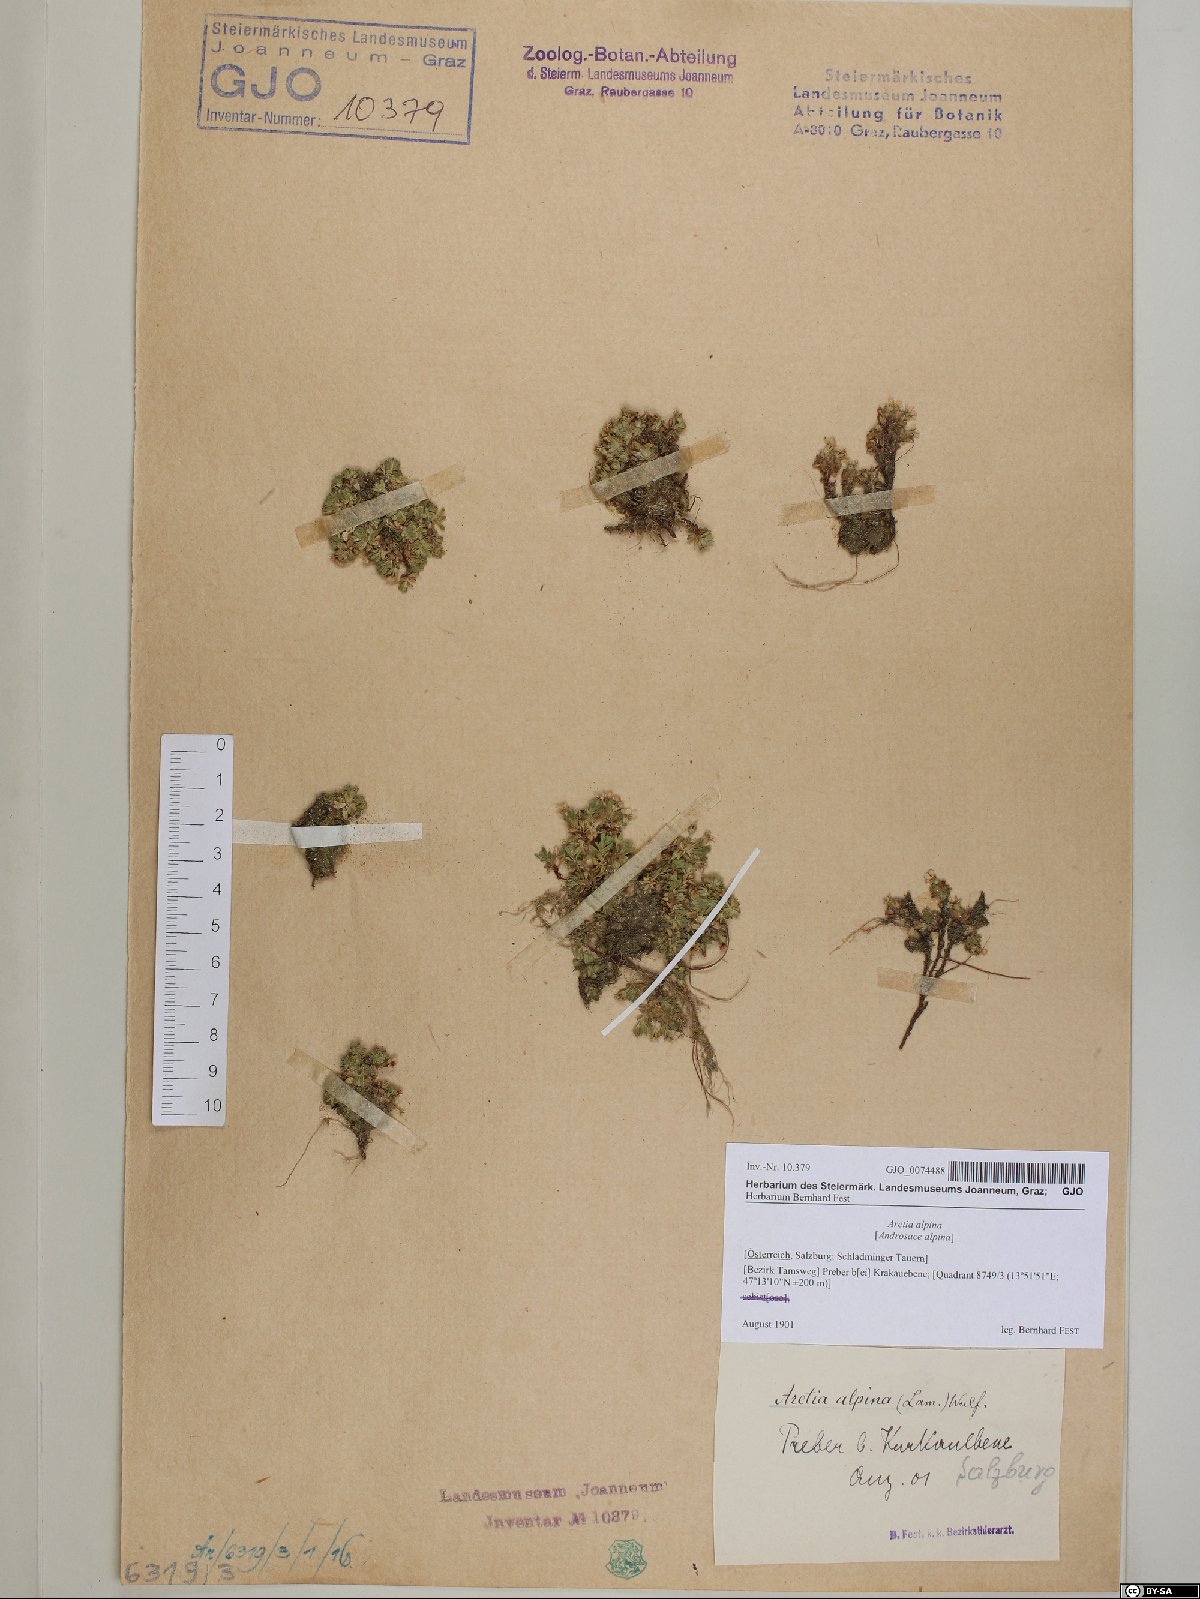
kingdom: Plantae
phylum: Tracheophyta
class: Magnoliopsida
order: Ericales
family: Primulaceae
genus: Androsace
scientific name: Androsace alpina
